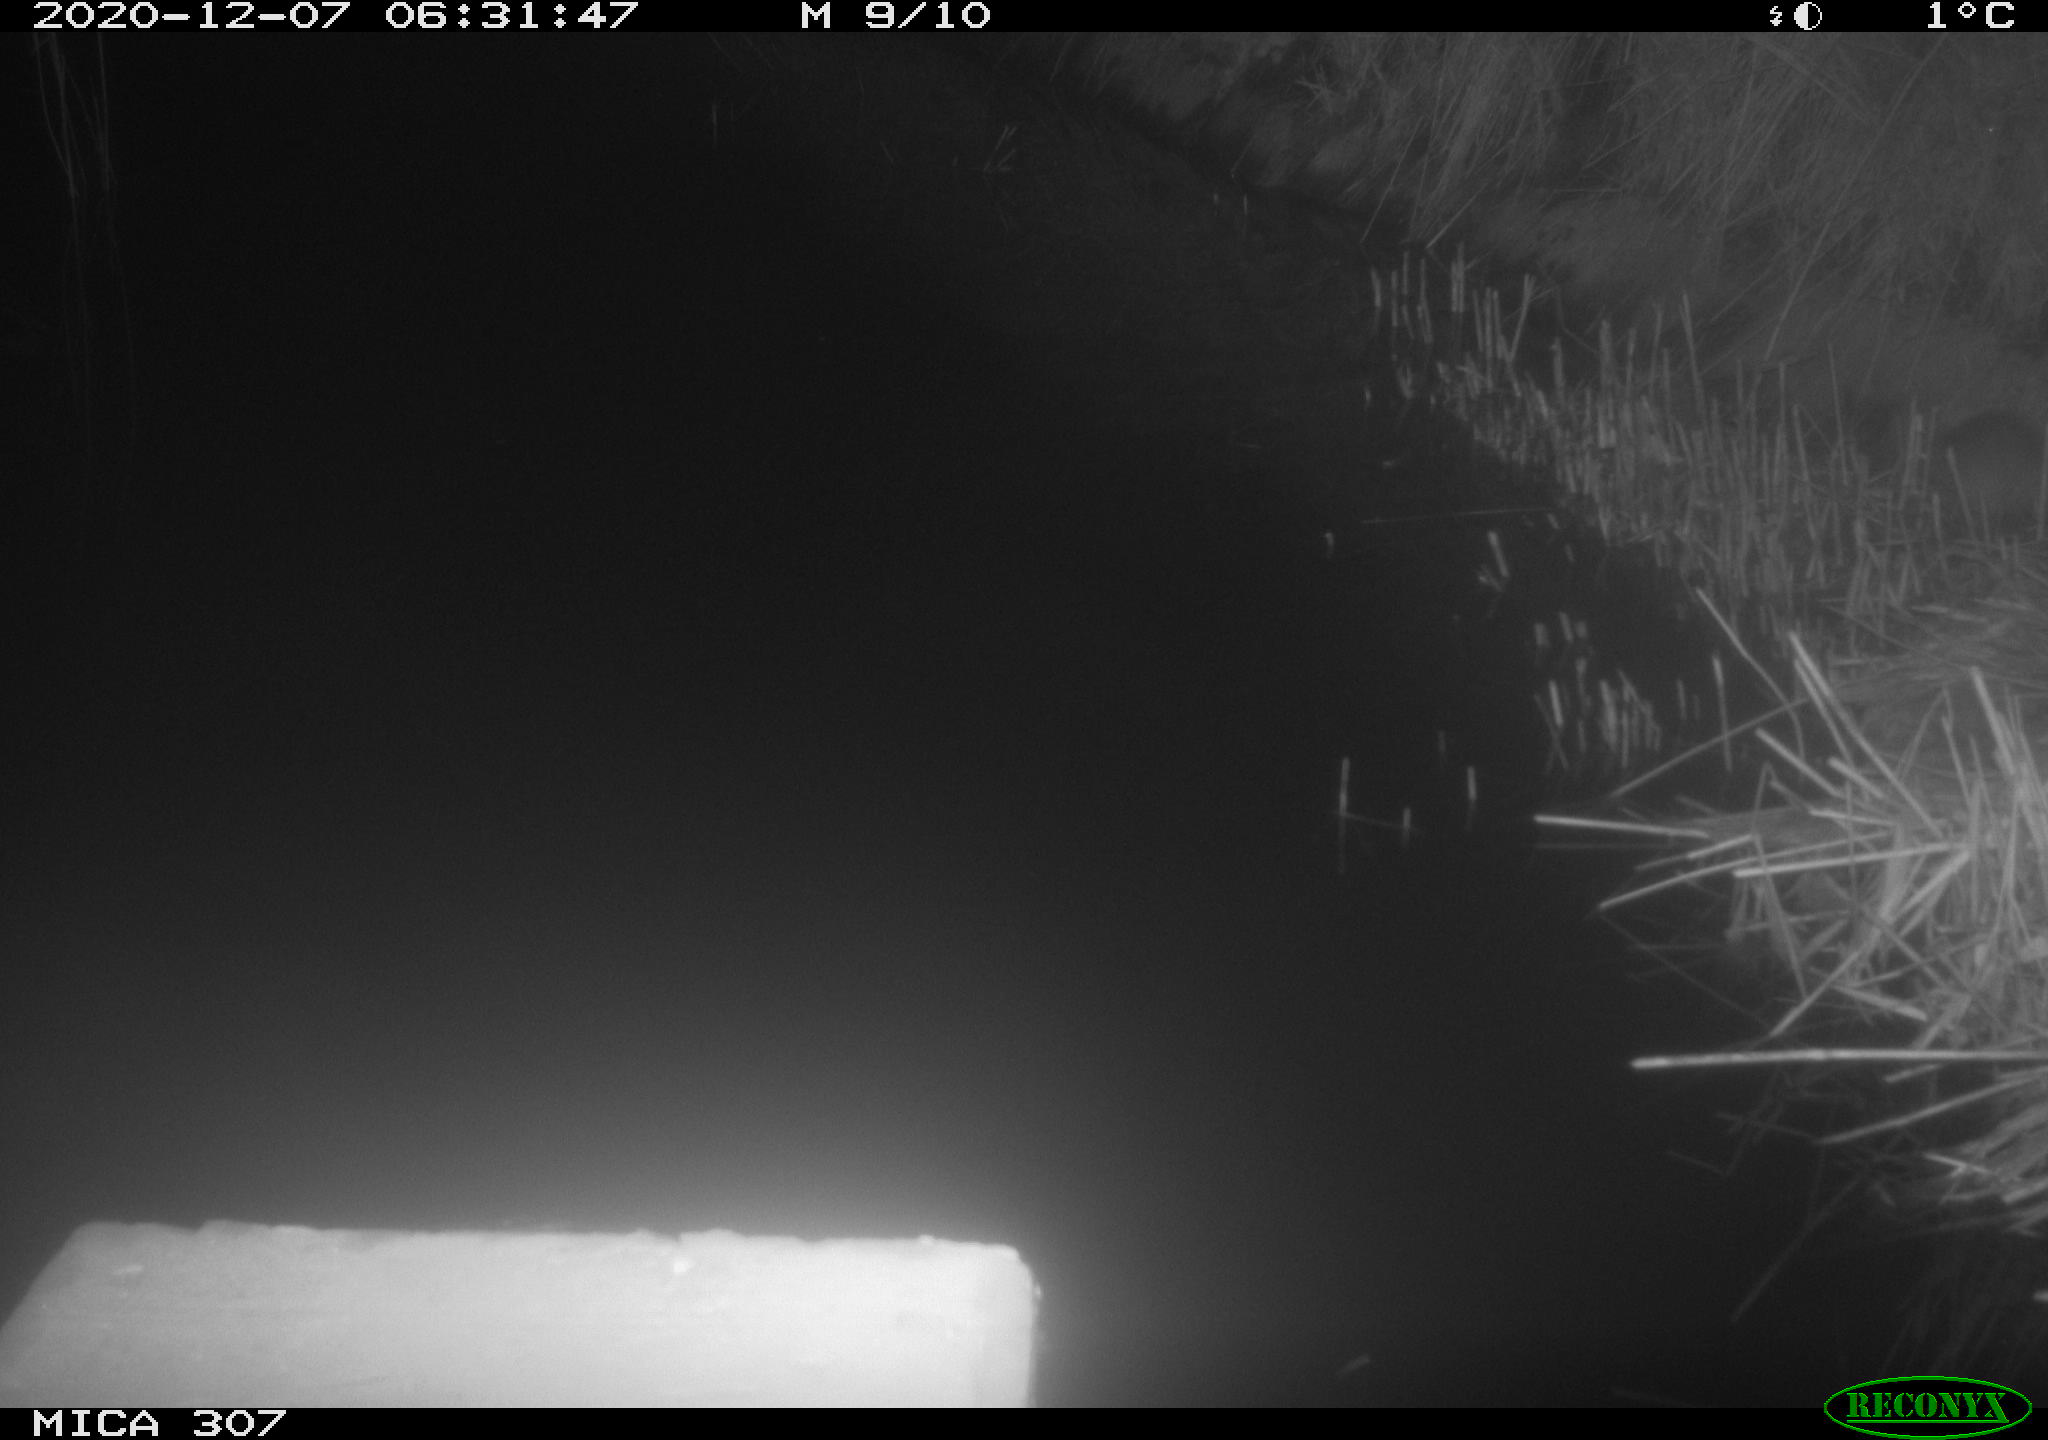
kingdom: Animalia
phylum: Chordata
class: Mammalia
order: Rodentia
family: Muridae
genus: Rattus
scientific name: Rattus norvegicus
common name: Brown rat
